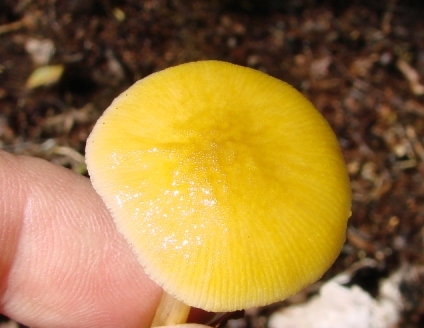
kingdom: Fungi
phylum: Basidiomycota
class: Agaricomycetes
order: Agaricales
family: Pluteaceae
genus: Pluteus
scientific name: Pluteus leoninus
